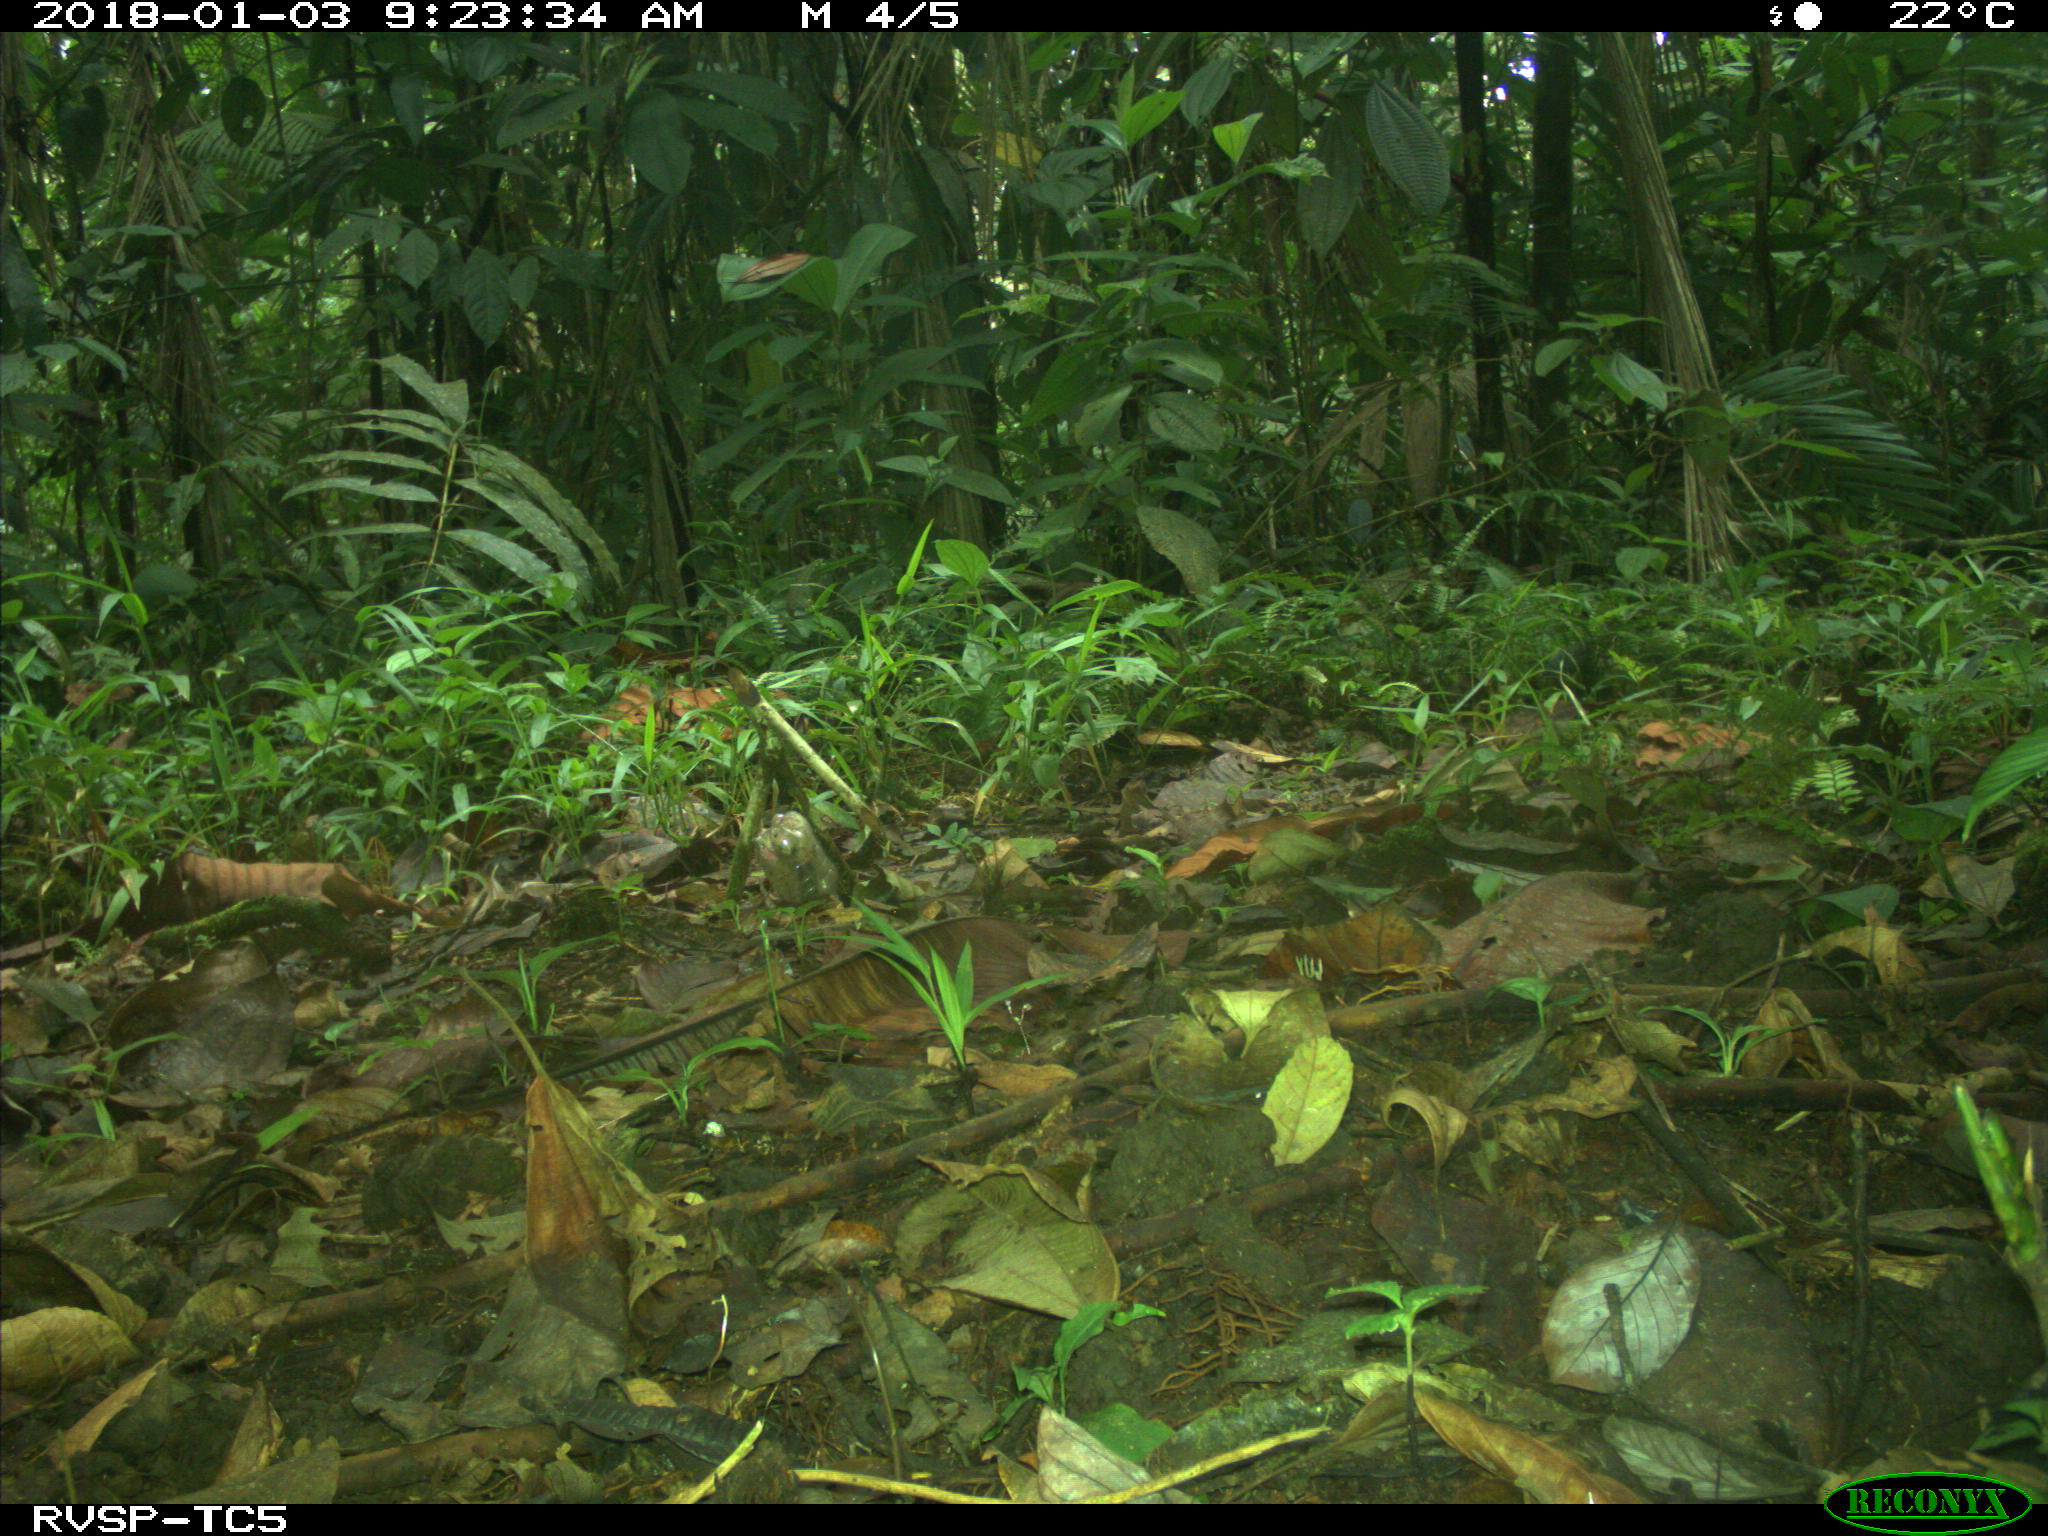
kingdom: Animalia
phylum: Chordata
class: Mammalia
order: Rodentia
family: Dasyproctidae
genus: Dasyprocta
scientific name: Dasyprocta punctata
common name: Central american agouti
